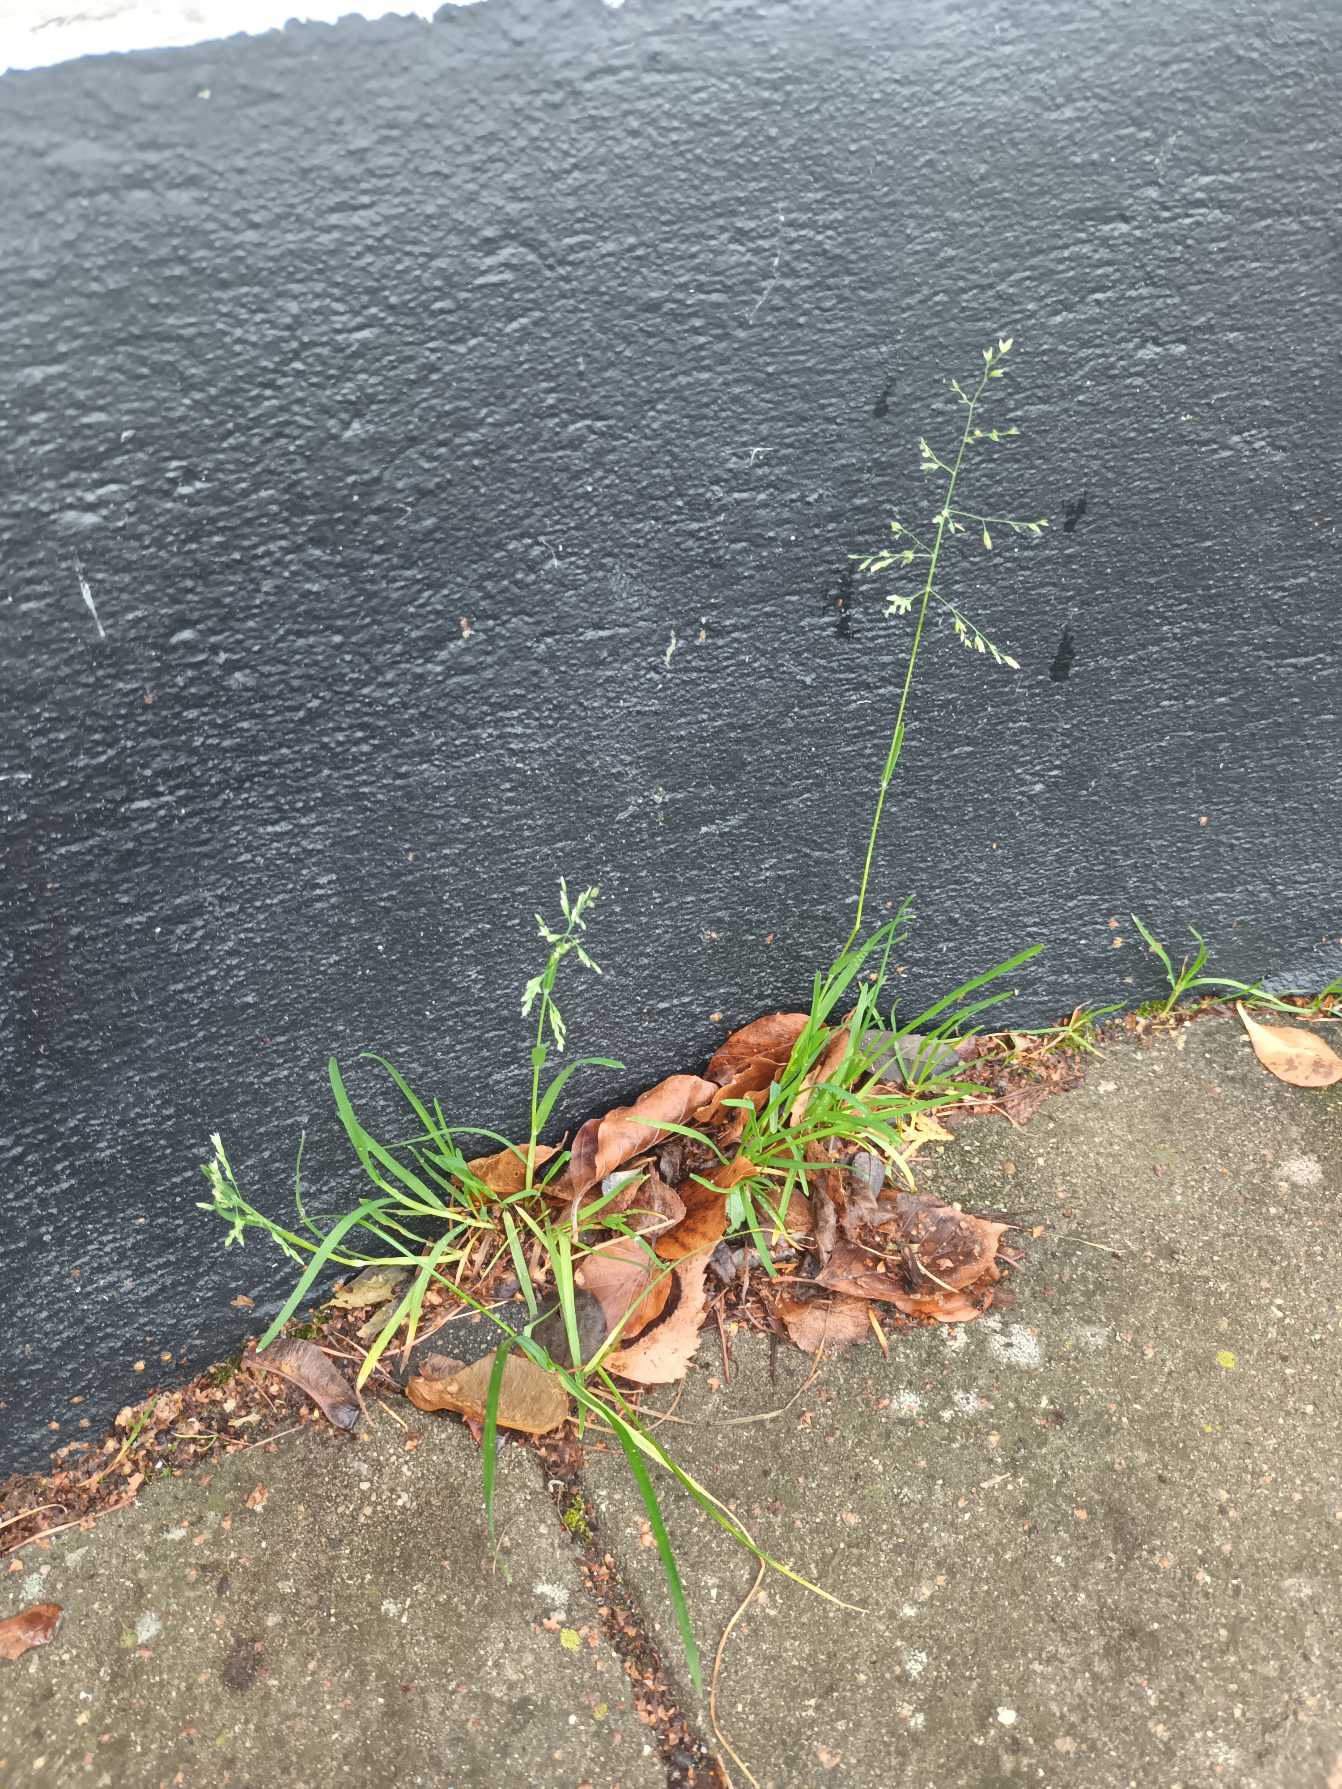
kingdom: Plantae
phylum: Tracheophyta
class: Liliopsida
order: Poales
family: Poaceae
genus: Poa
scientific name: Poa annua
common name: Enårig rapgræs
